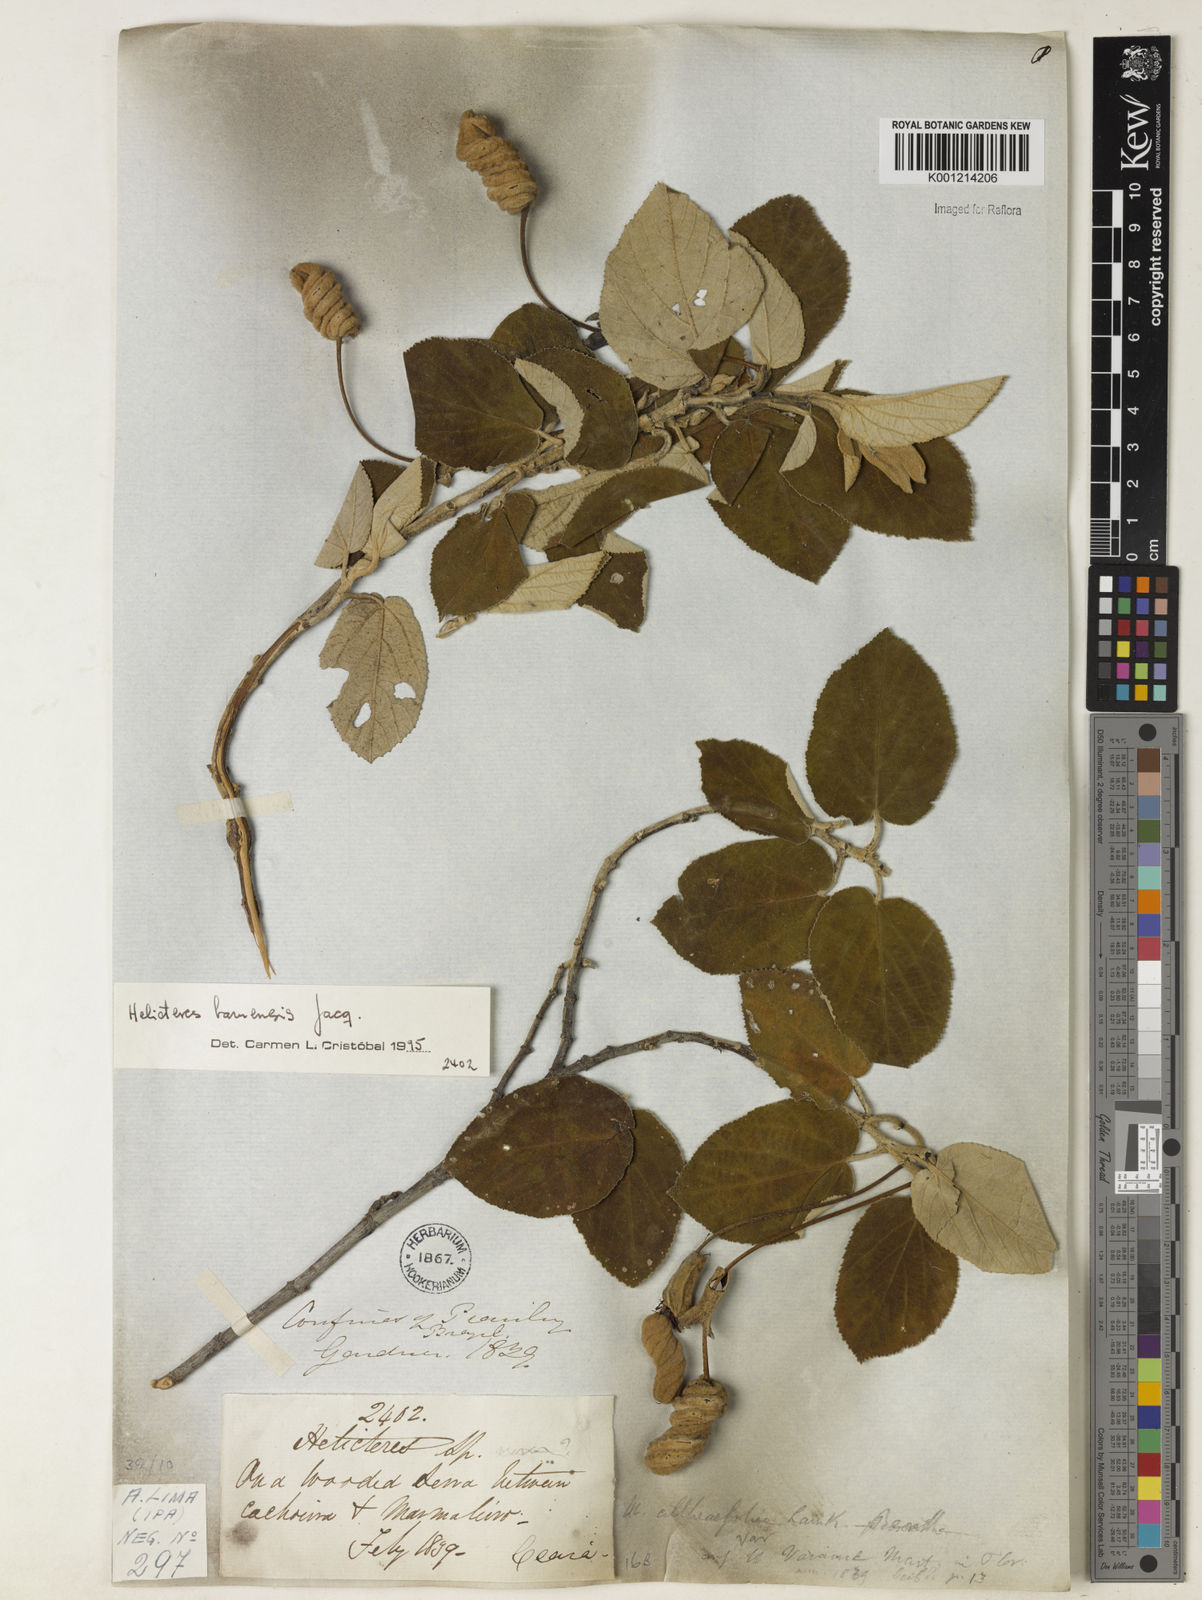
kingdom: Plantae
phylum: Tracheophyta
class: Magnoliopsida
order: Malvales
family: Malvaceae
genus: Helicteres
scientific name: Helicteres baruensis
